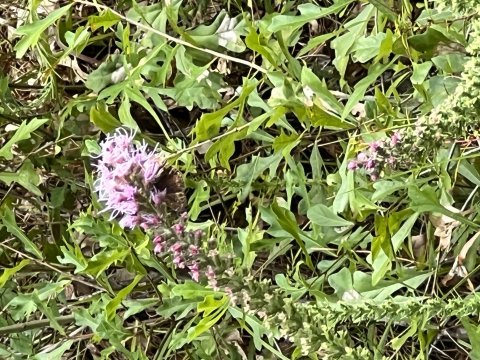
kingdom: Animalia
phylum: Arthropoda
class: Insecta
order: Lepidoptera
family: Hesperiidae
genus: Gesta
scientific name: Gesta
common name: Horace's Duskywing
